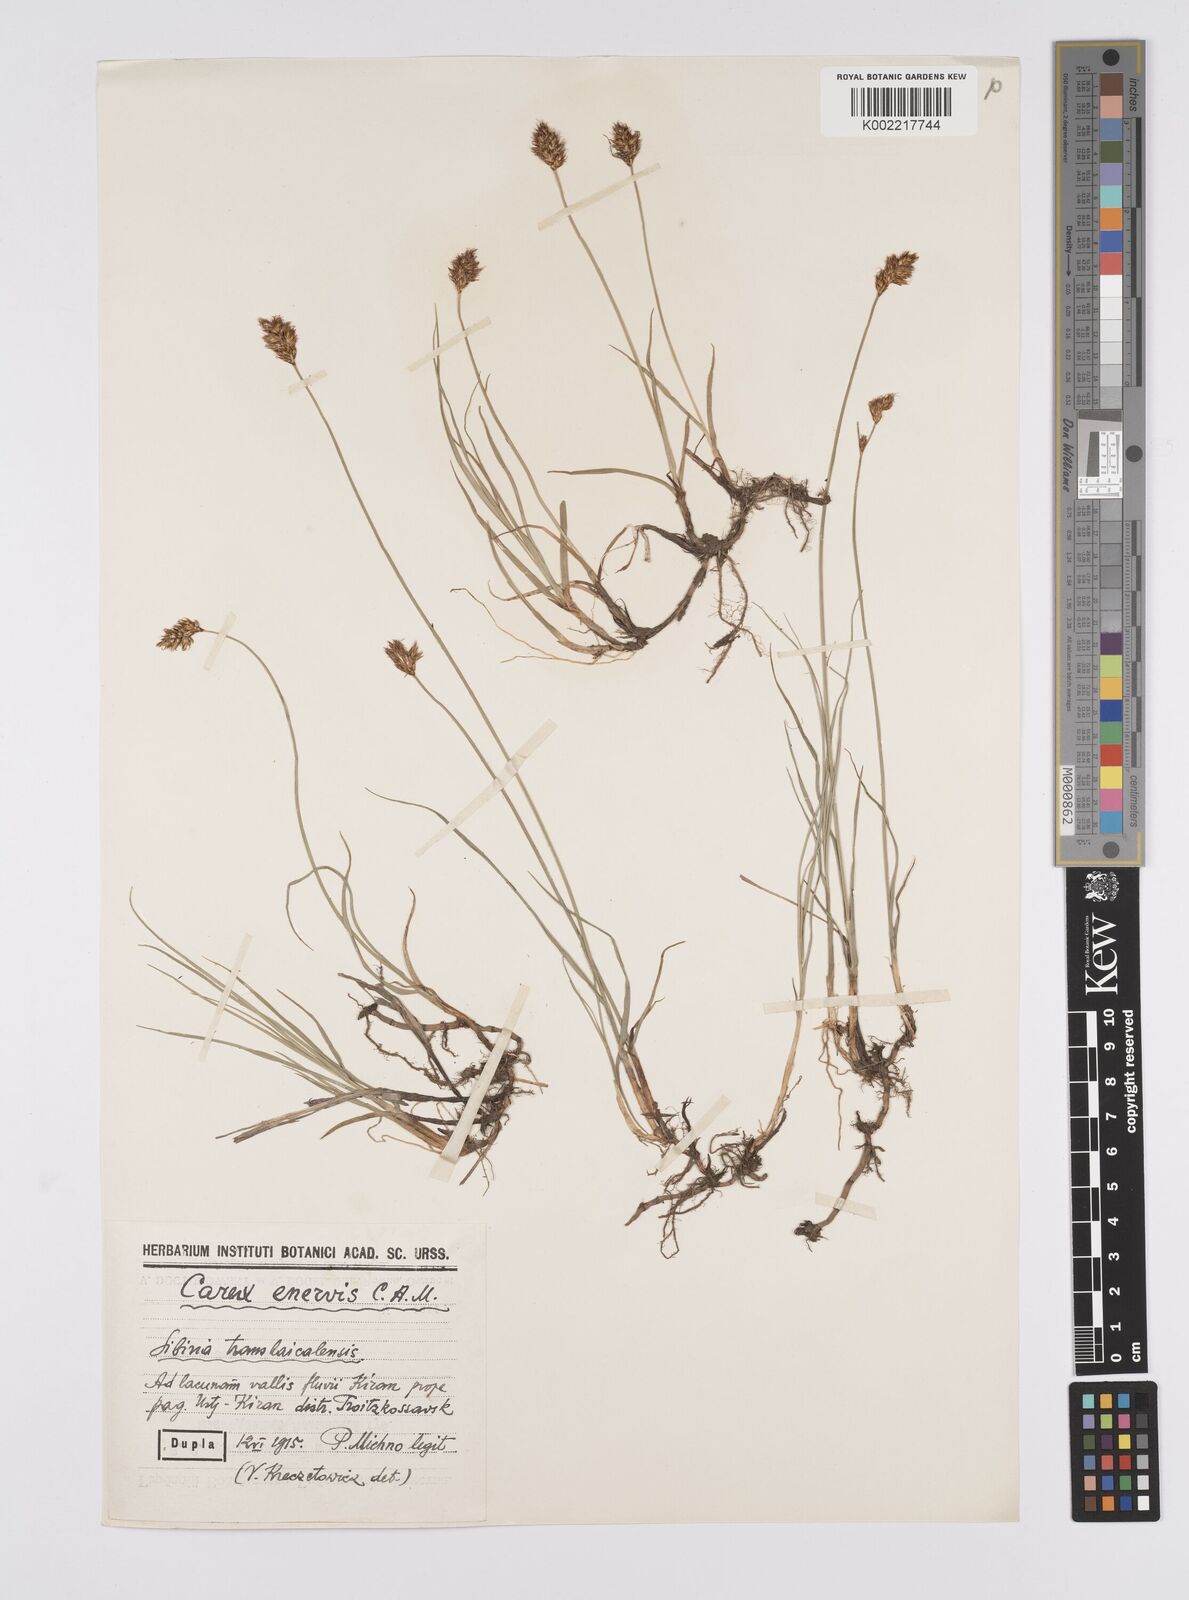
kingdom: Plantae
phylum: Tracheophyta
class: Liliopsida
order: Poales
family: Cyperaceae
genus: Carex
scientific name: Carex stenophylla
